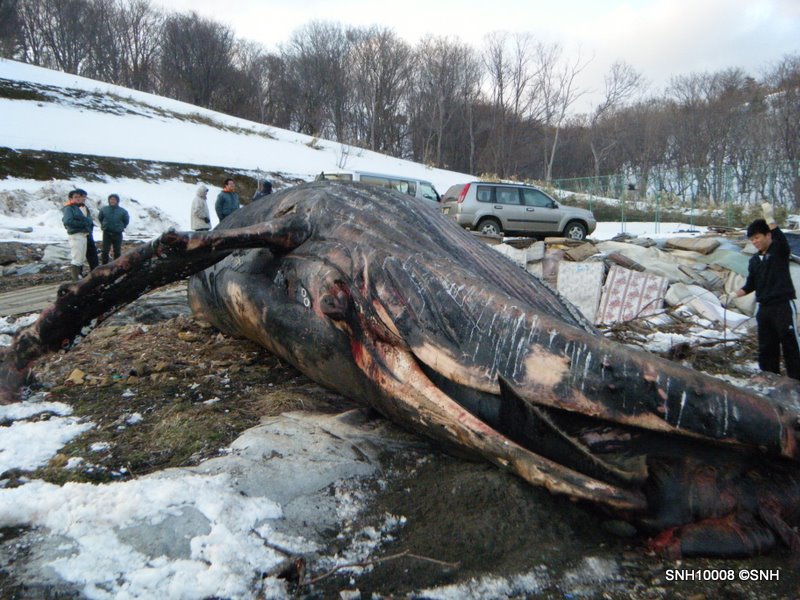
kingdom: Animalia
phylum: Chordata
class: Mammalia
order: Cetacea
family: Balaenopteridae
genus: Megaptera
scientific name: Megaptera novaeangliae
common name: Humpback whale
